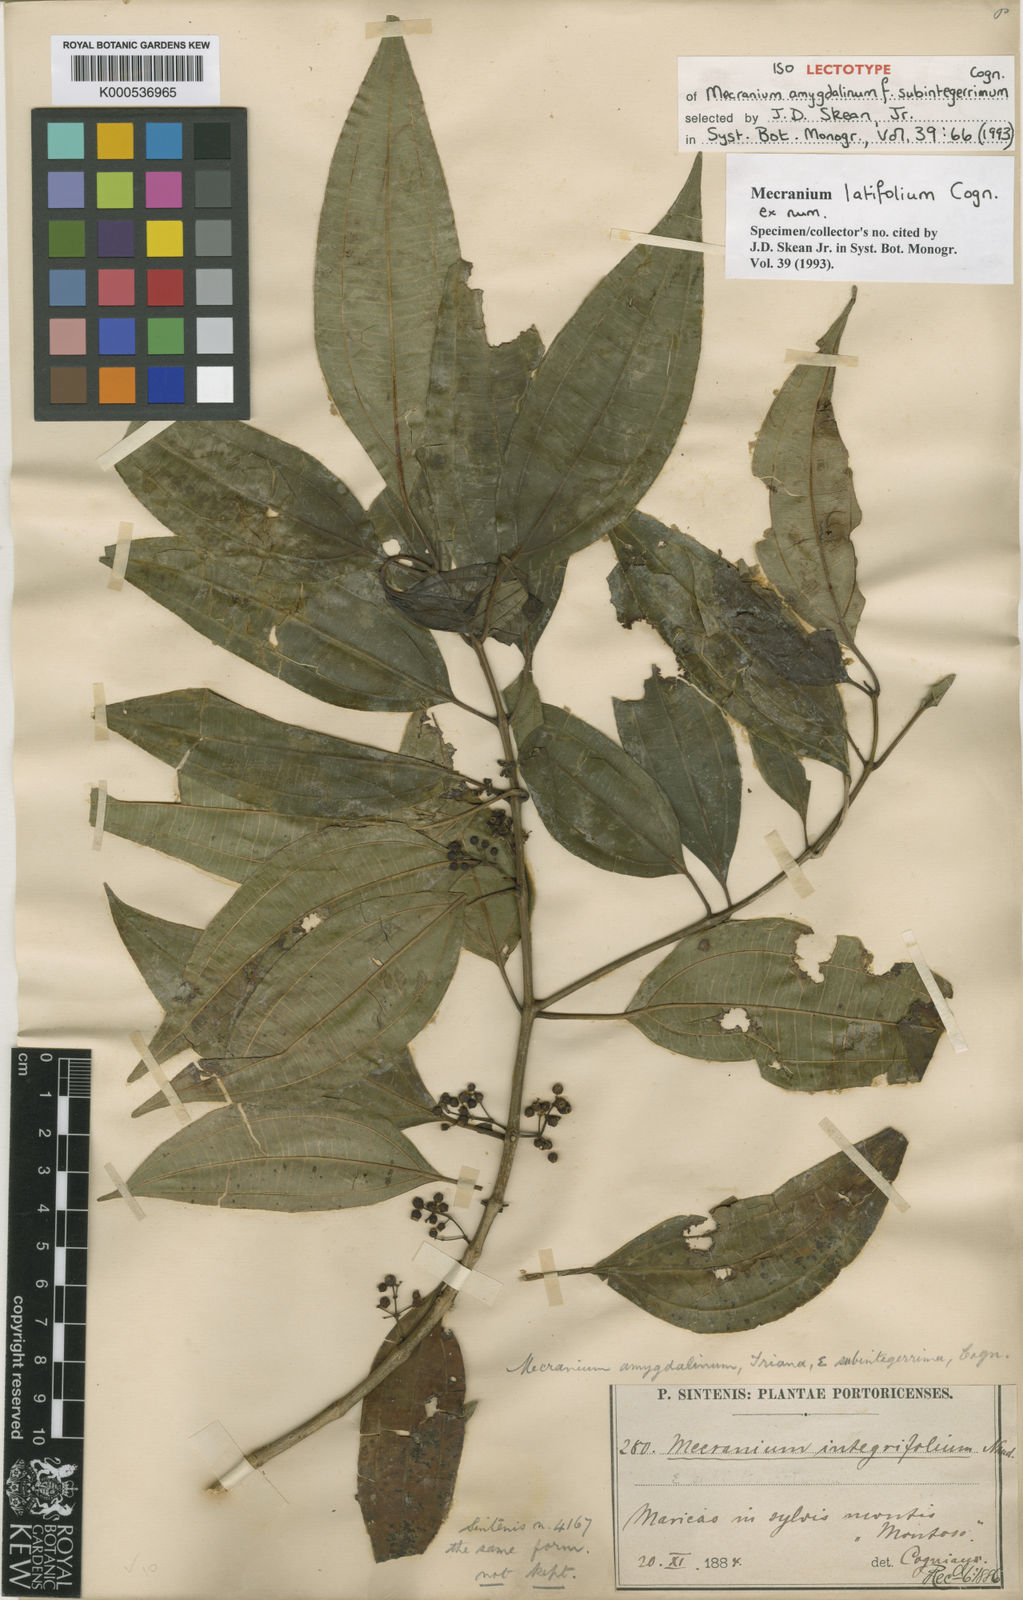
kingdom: Plantae
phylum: Tracheophyta
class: Magnoliopsida
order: Myrtales
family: Melastomataceae
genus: Miconia
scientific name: Miconia borinquensis
